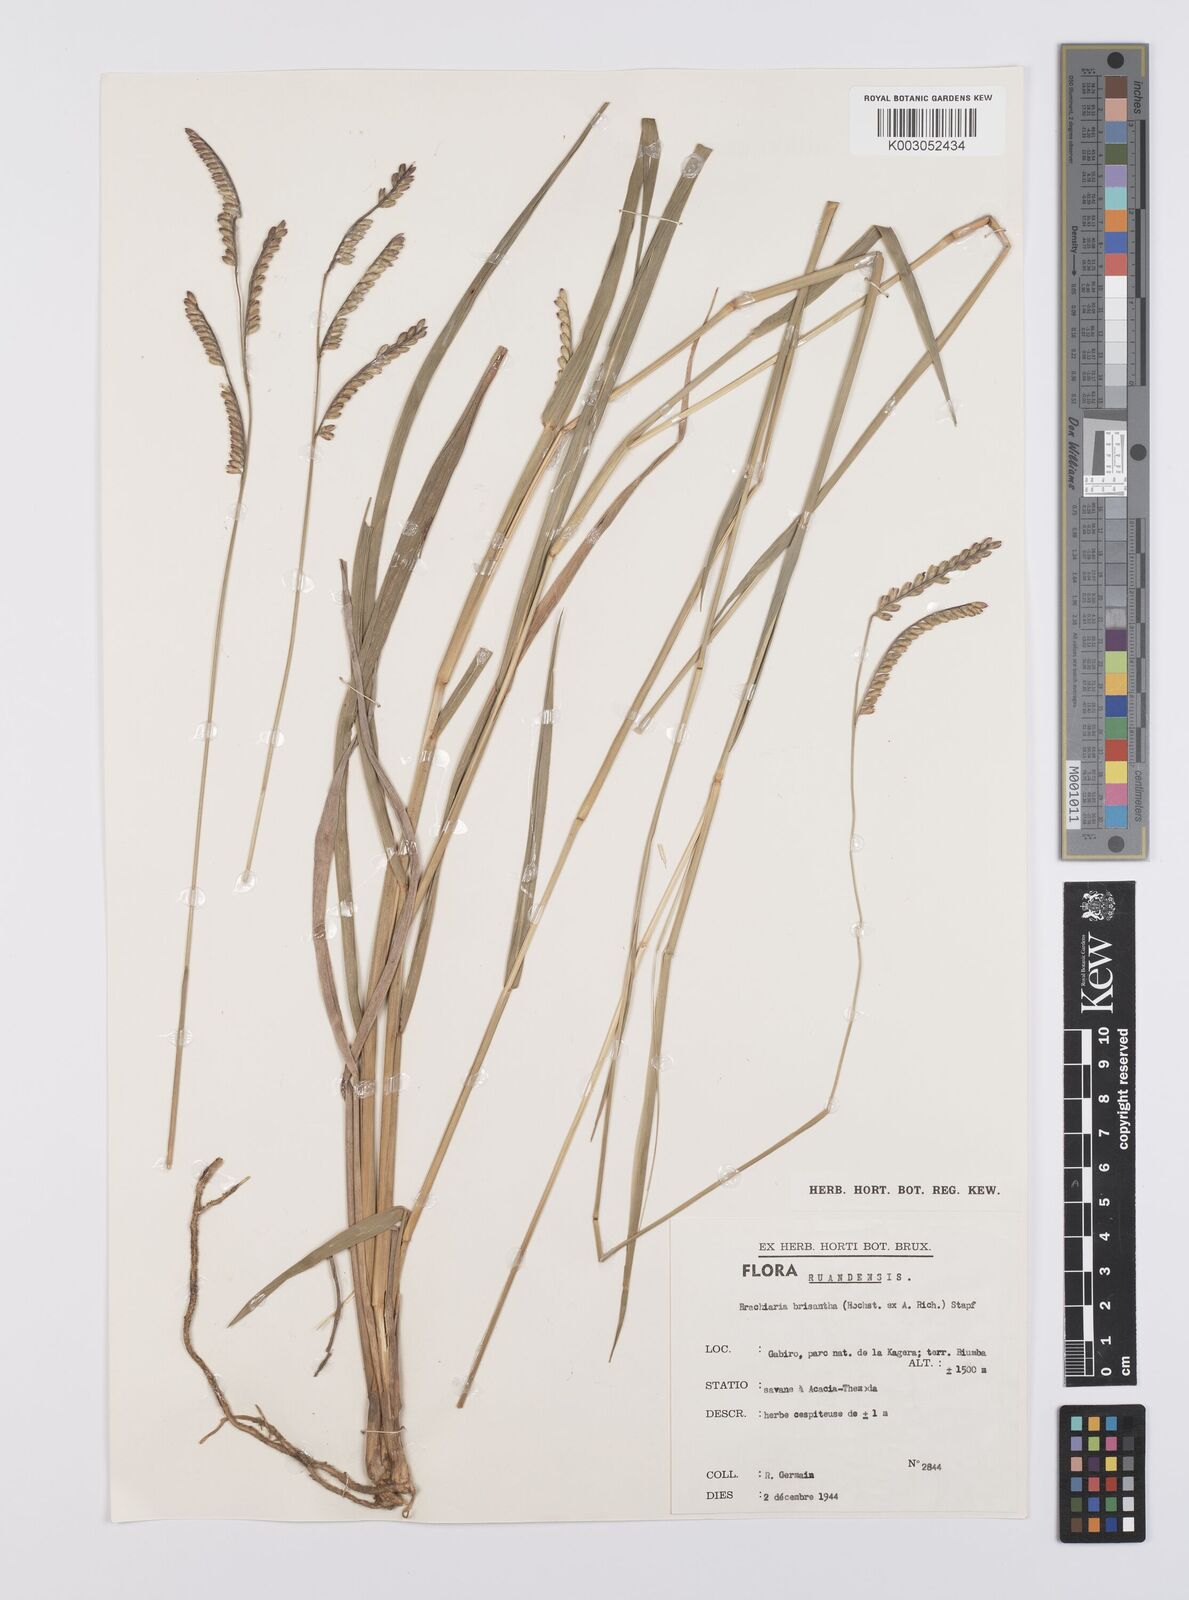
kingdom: Plantae
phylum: Tracheophyta
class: Liliopsida
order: Poales
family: Poaceae
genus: Urochloa
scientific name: Urochloa brizantha
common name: Palisade signalgrass
